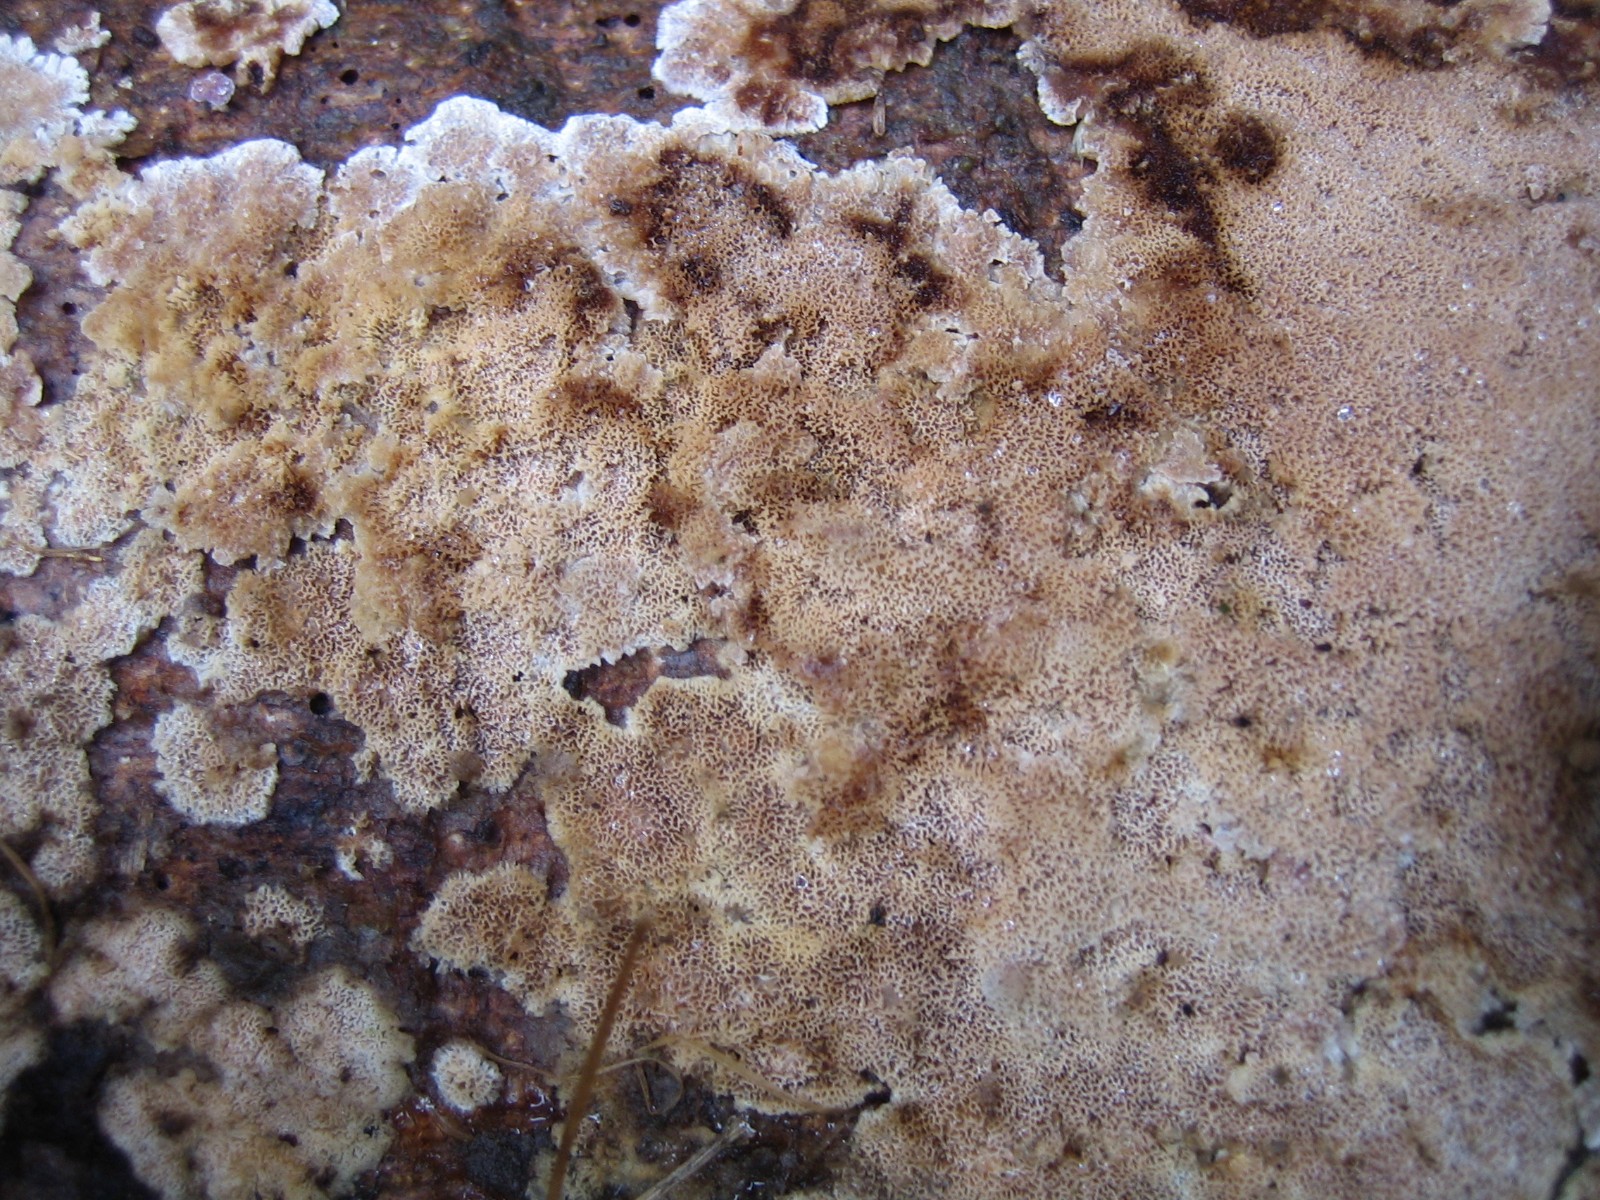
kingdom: Fungi
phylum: Basidiomycota
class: Agaricomycetes
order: Hymenochaetales
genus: Trichaptum
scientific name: Trichaptum abietinum
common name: almindelig violporesvamp
